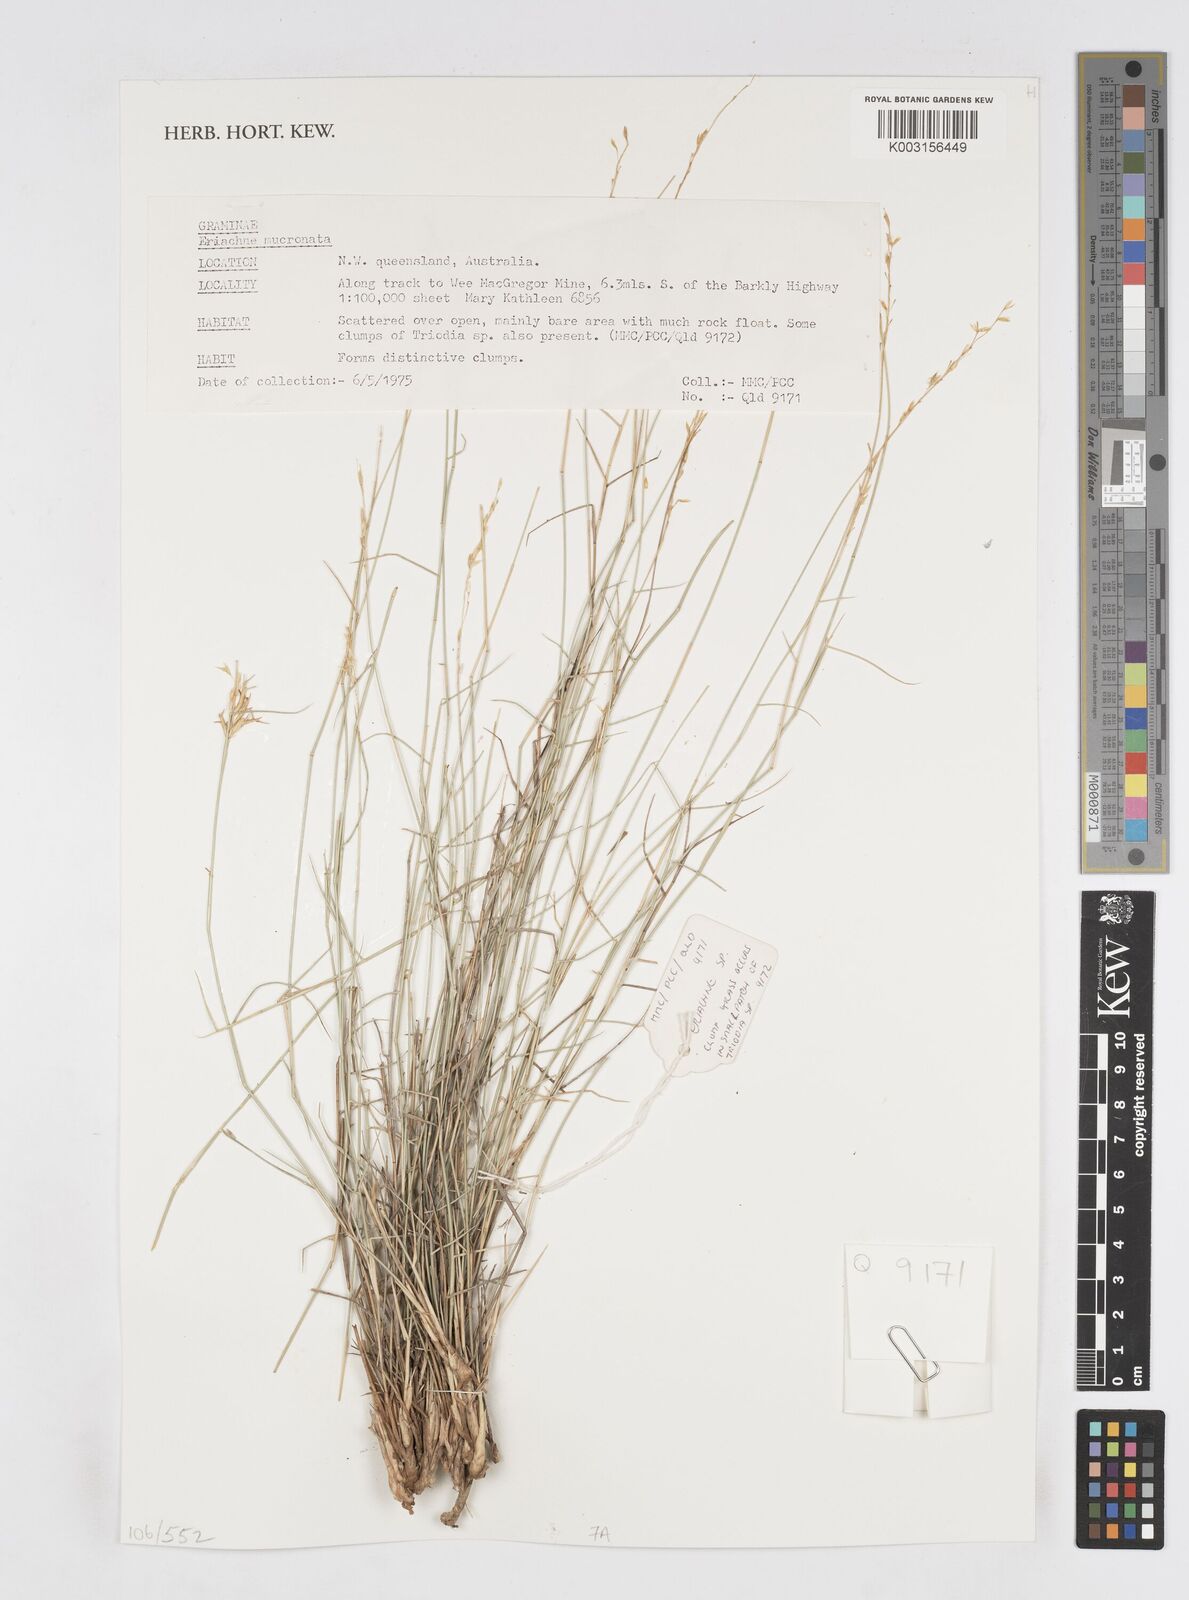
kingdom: Plantae
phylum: Tracheophyta
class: Liliopsida
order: Poales
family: Poaceae
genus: Eriachne
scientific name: Eriachne mucronata
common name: Mountain wanderrie grass
